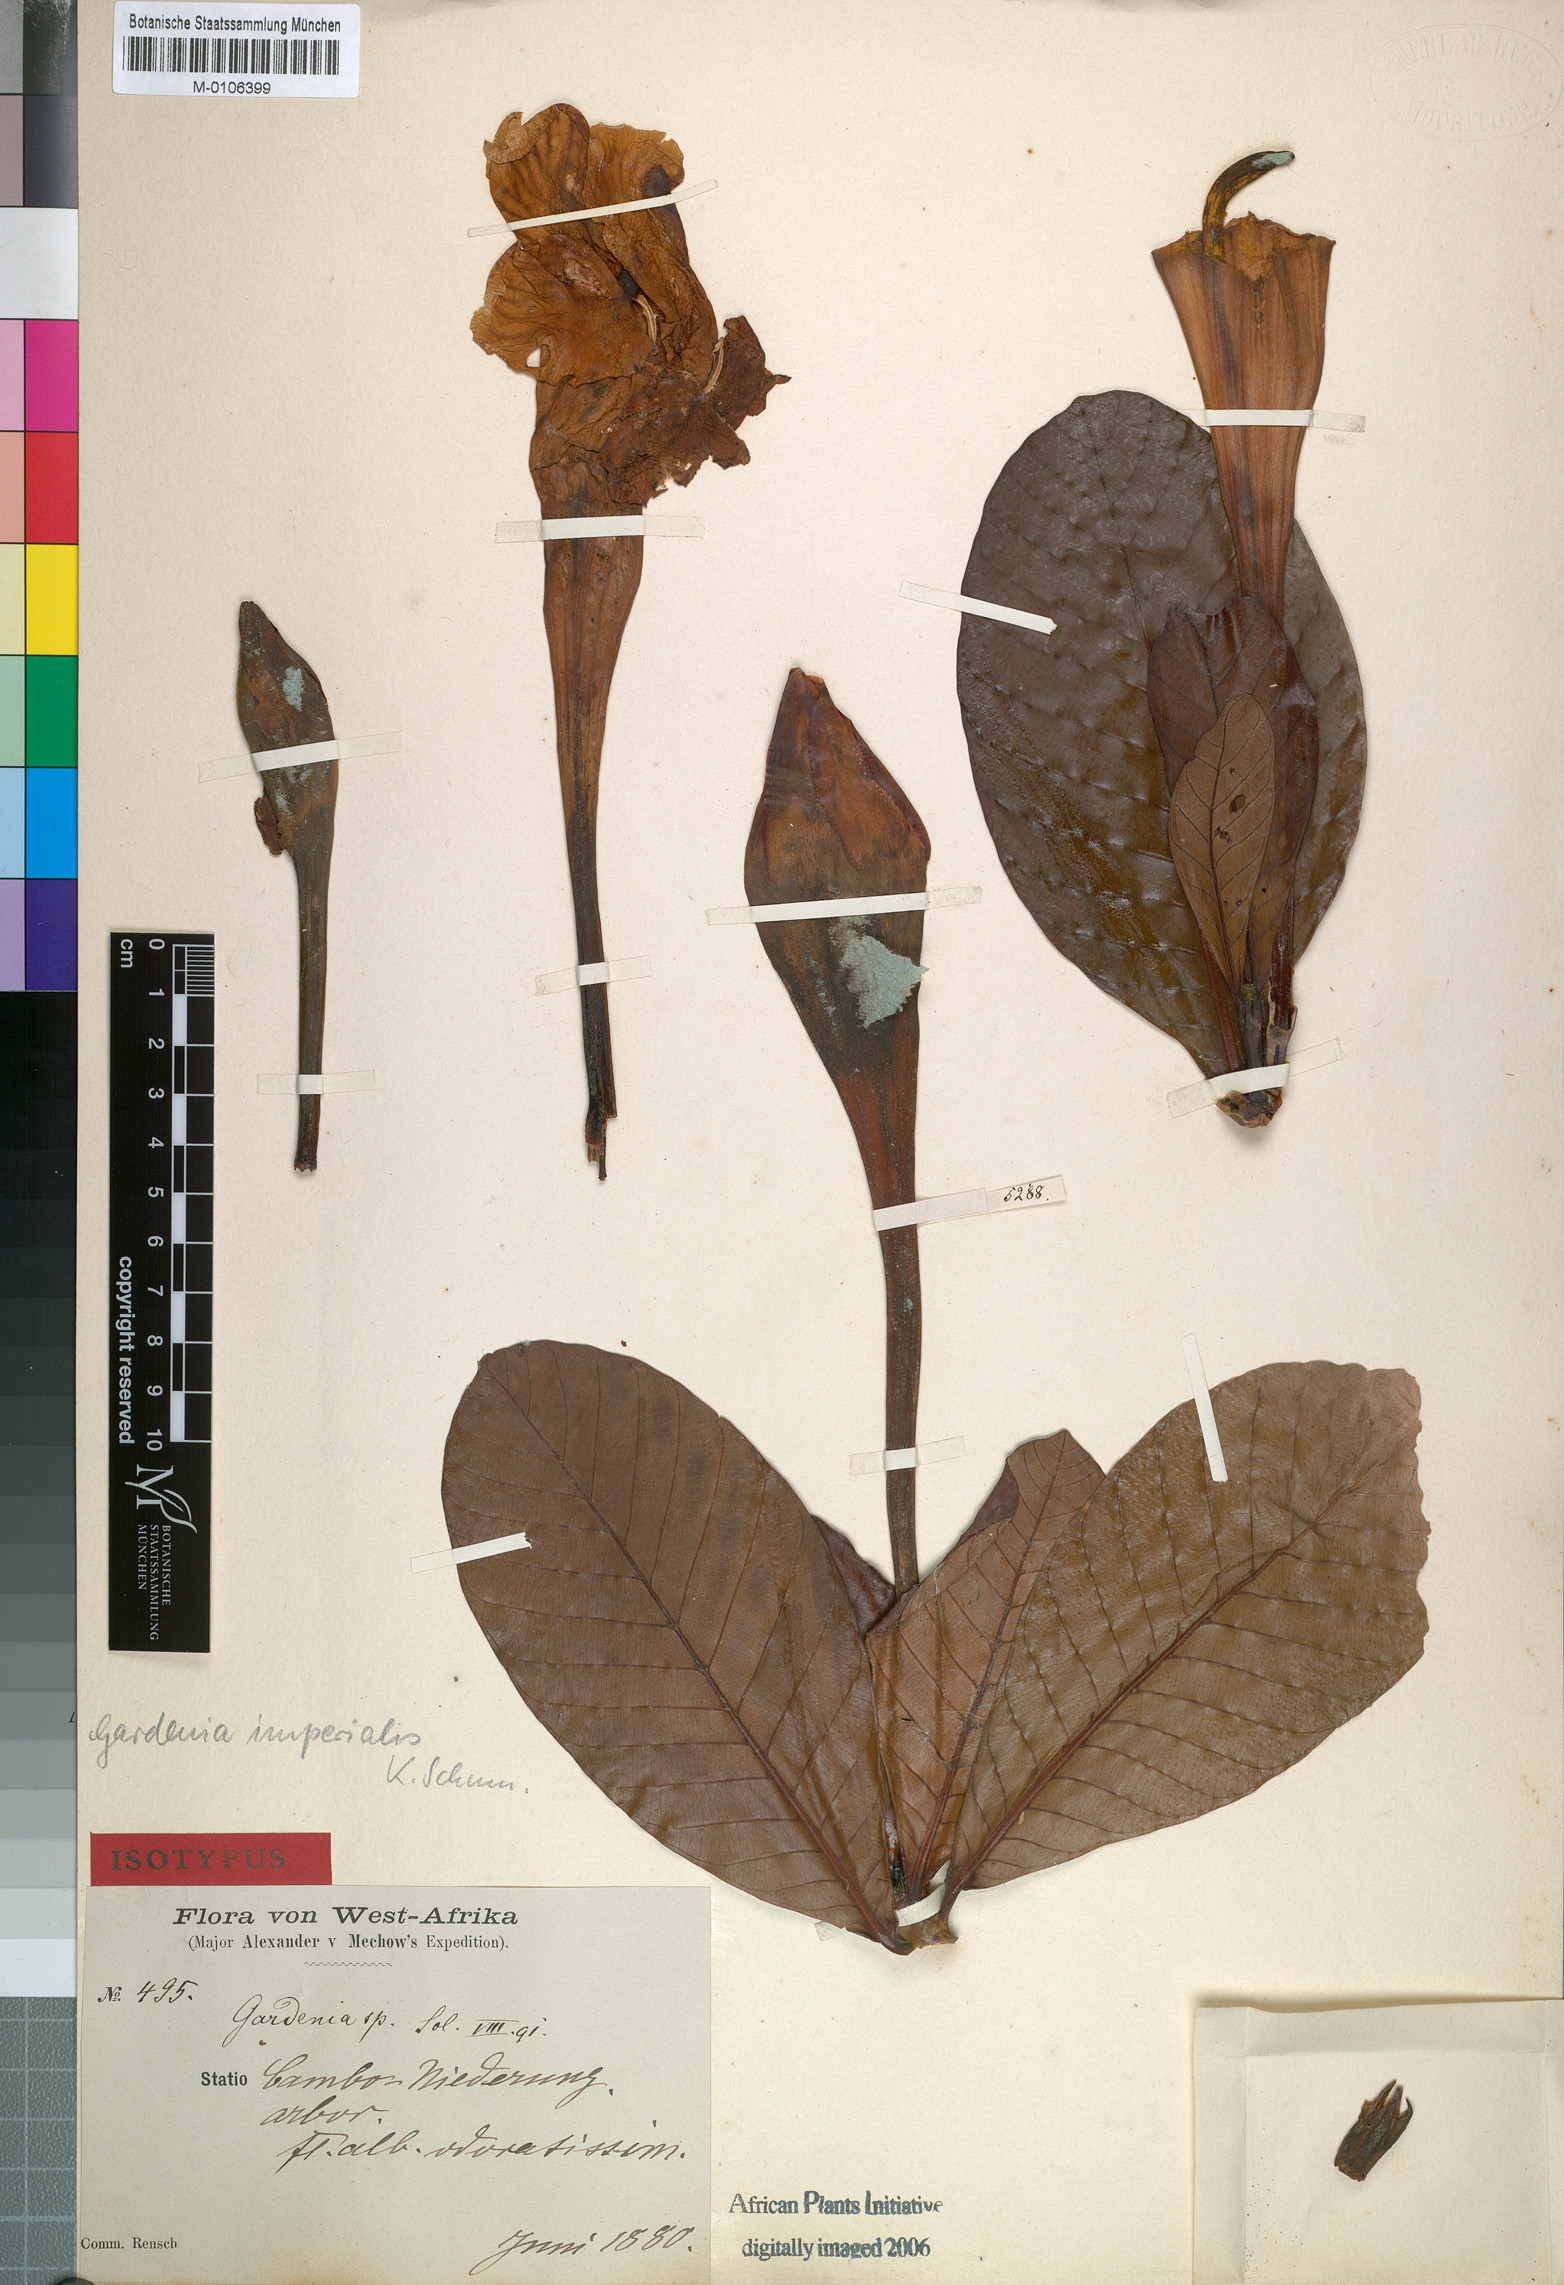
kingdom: Plantae
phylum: Tracheophyta
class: Magnoliopsida
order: Gentianales
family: Rubiaceae
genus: Gardenia
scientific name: Gardenia imperialis
